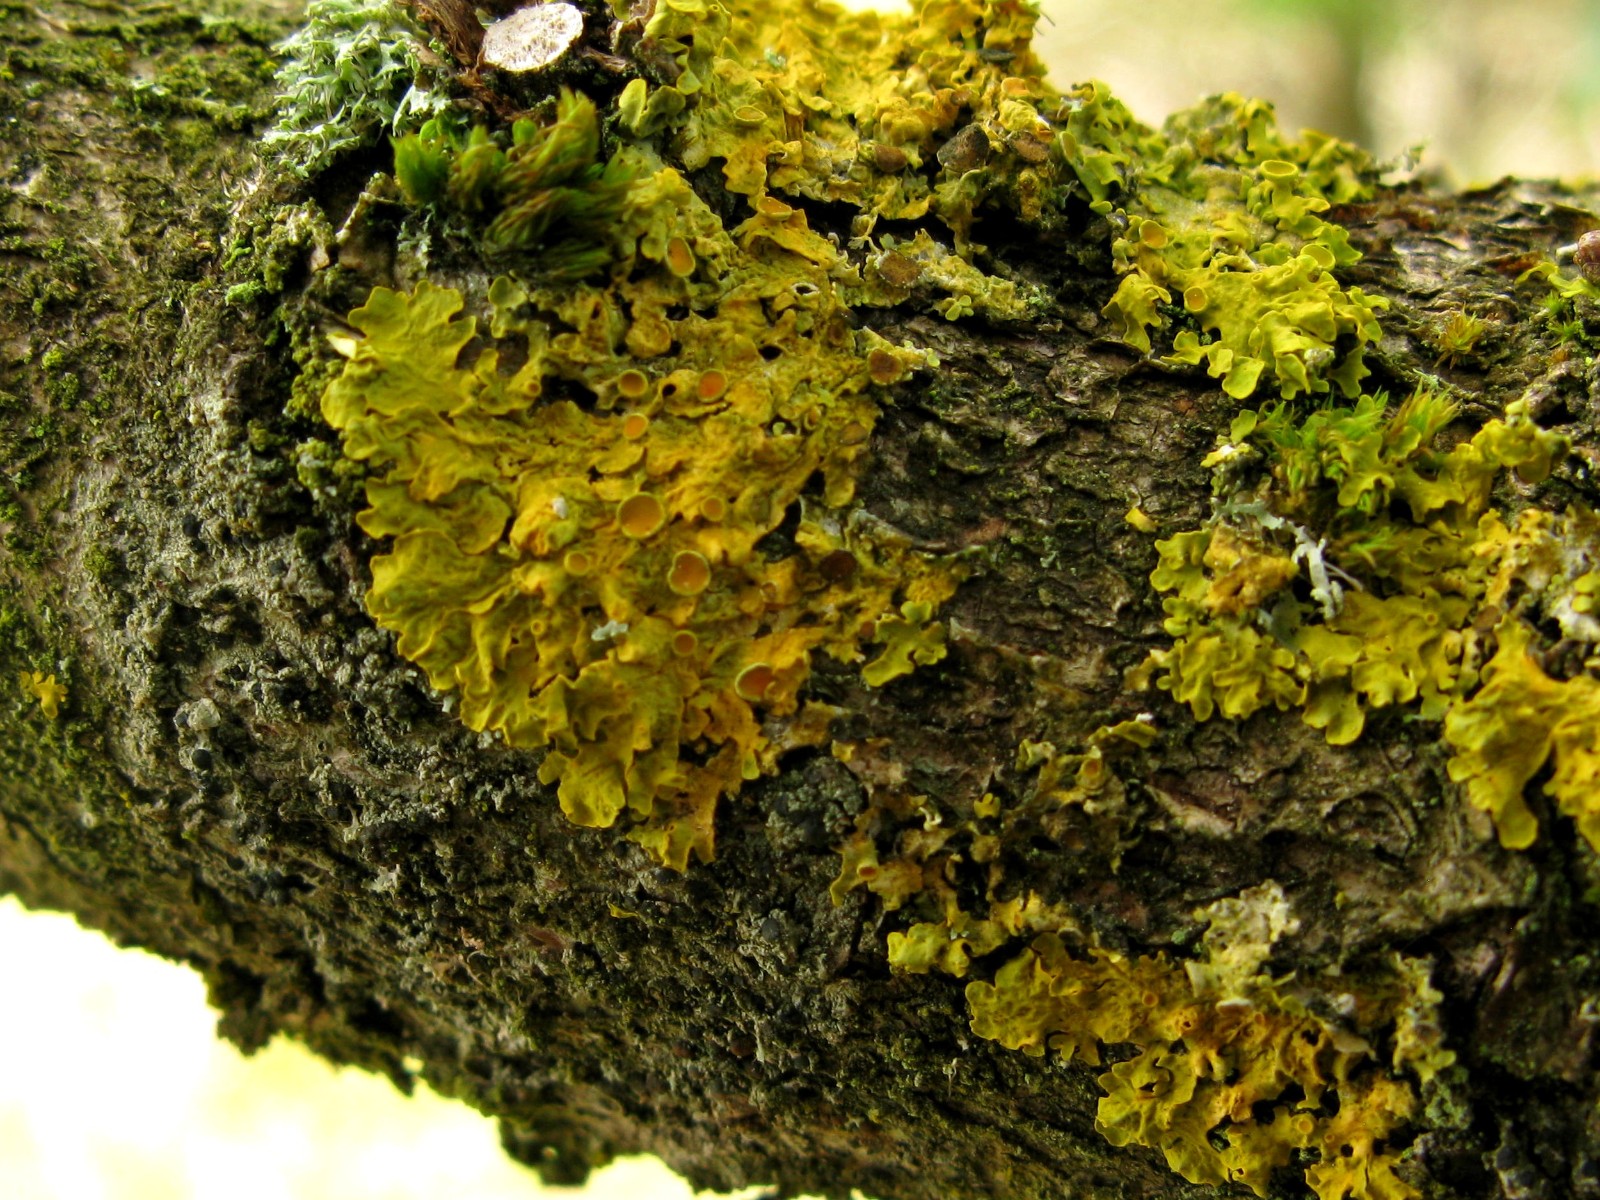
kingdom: Fungi
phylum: Ascomycota
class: Lecanoromycetes
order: Teloschistales
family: Teloschistaceae
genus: Xanthoria
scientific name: Xanthoria parietina
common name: almindelig væggelav
